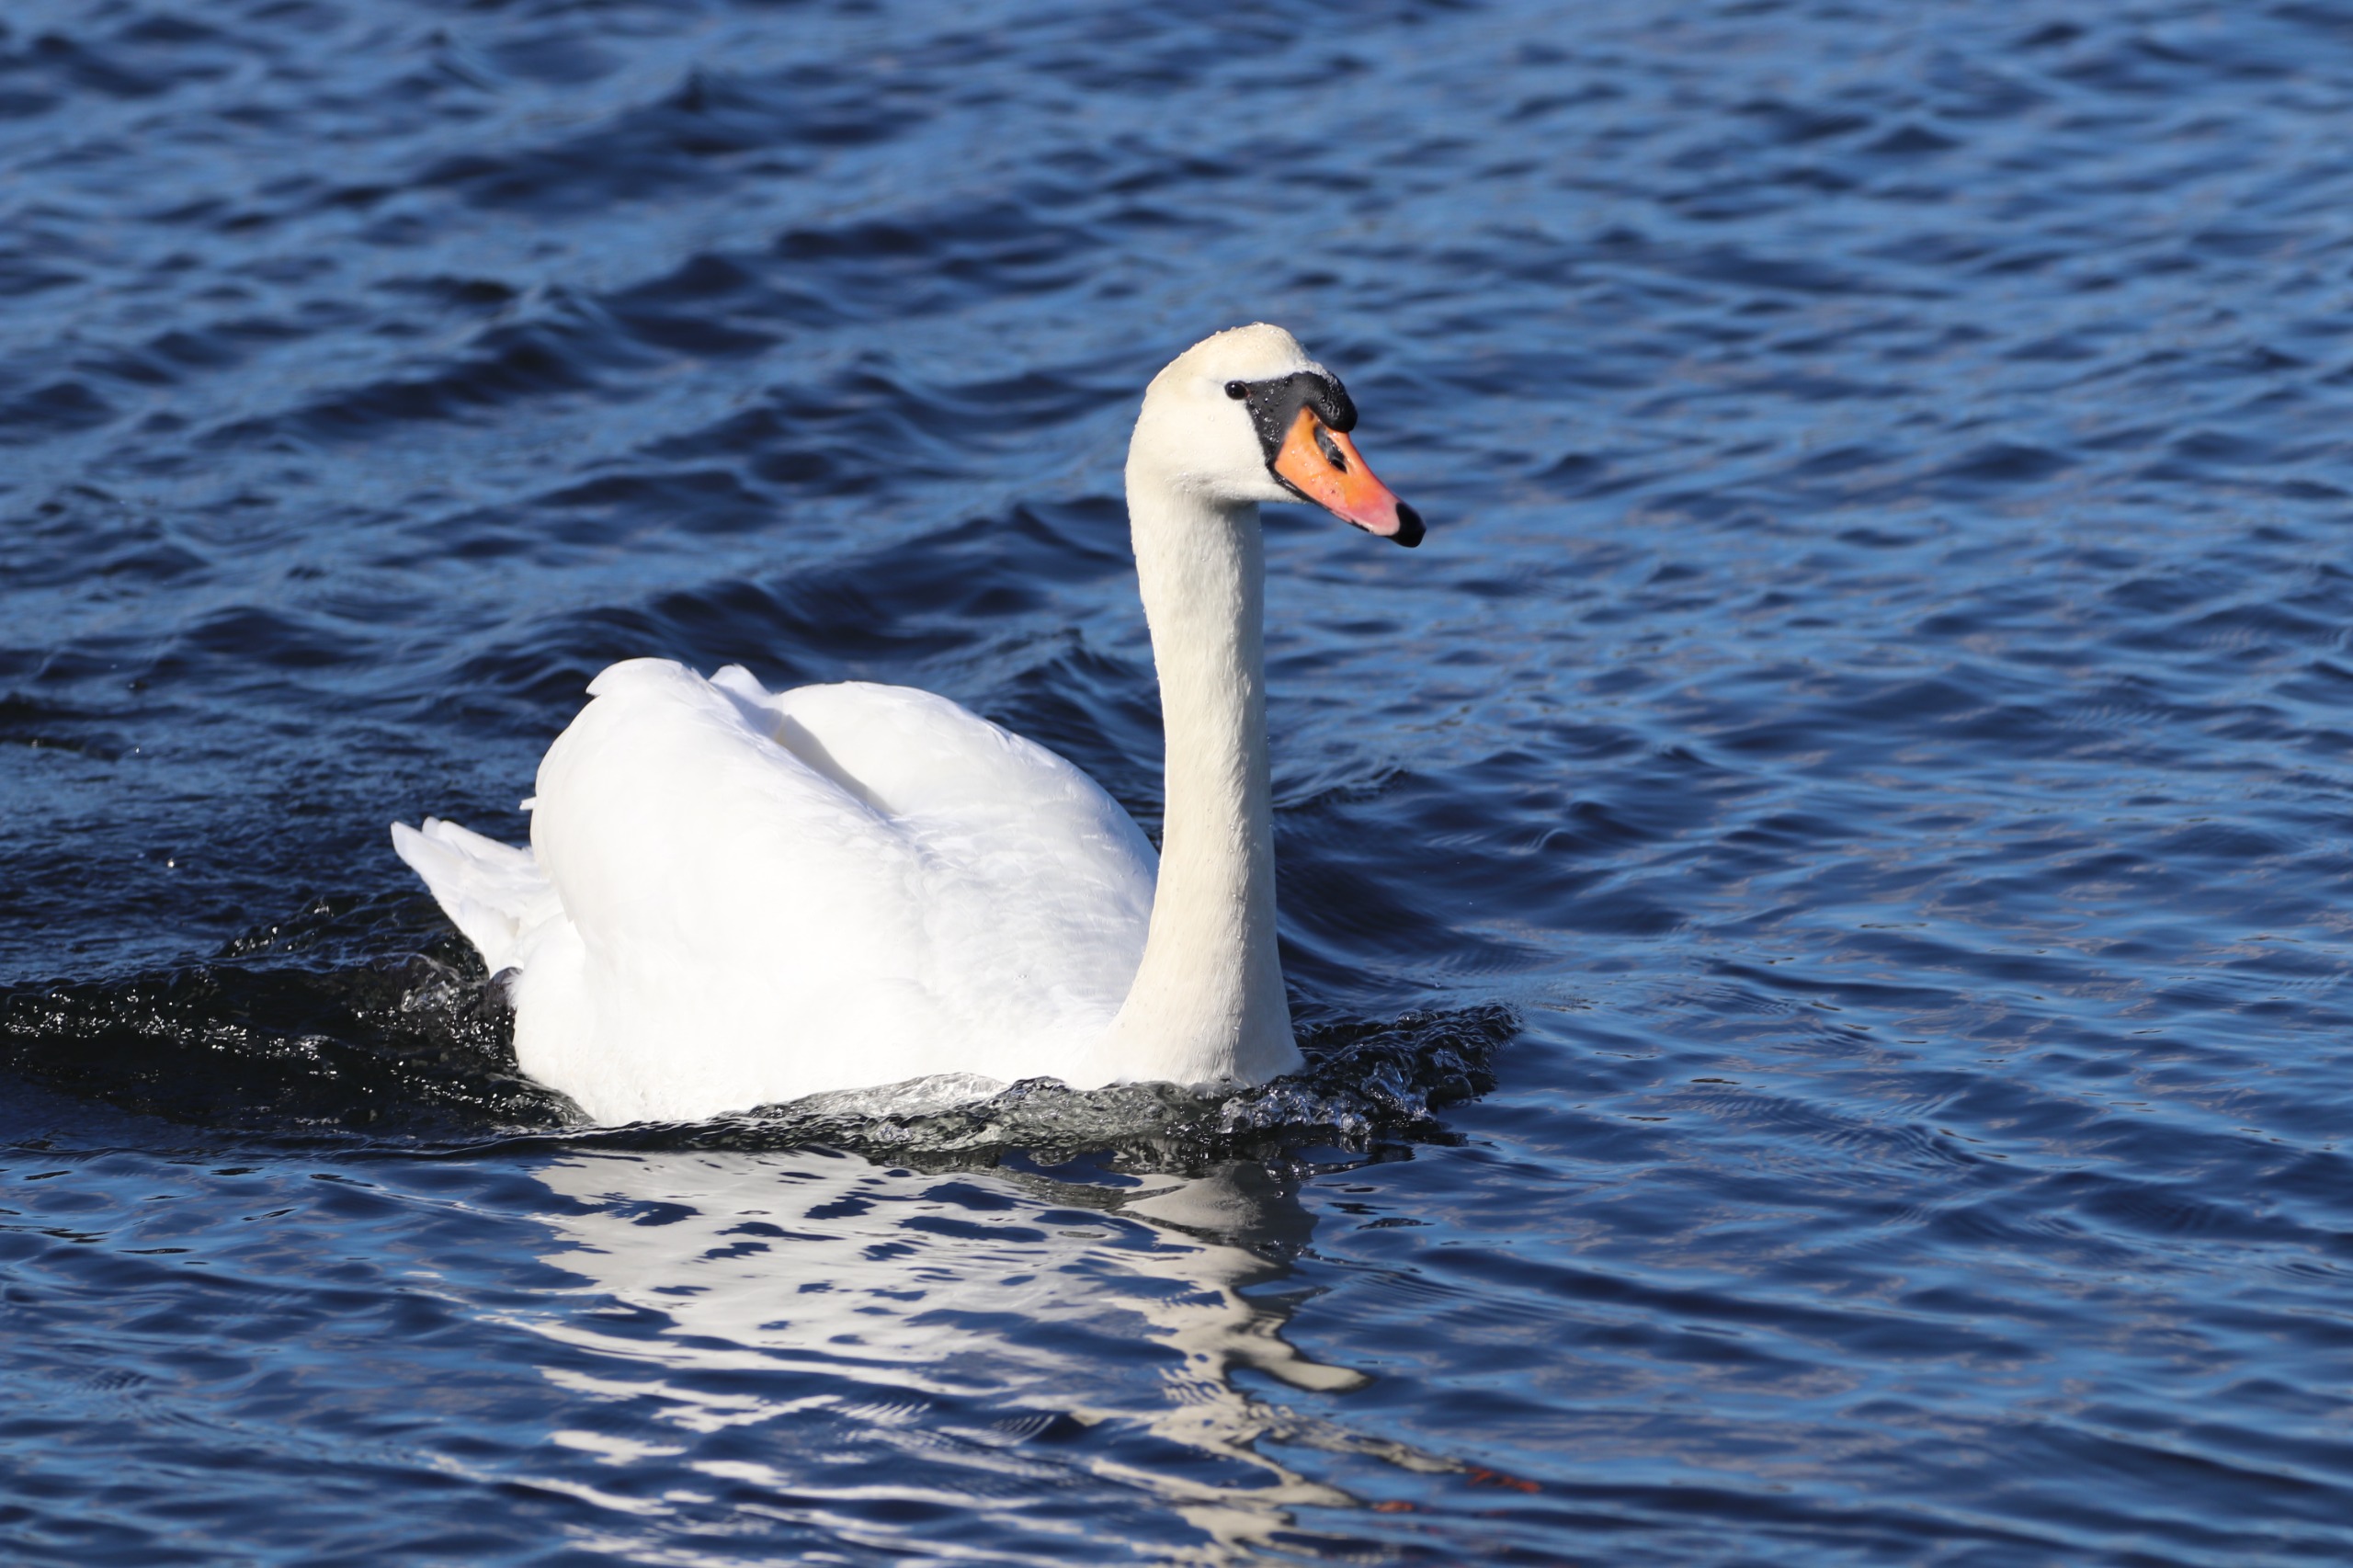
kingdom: Animalia
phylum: Chordata
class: Aves
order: Anseriformes
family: Anatidae
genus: Cygnus
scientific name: Cygnus olor
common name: Knopsvane
